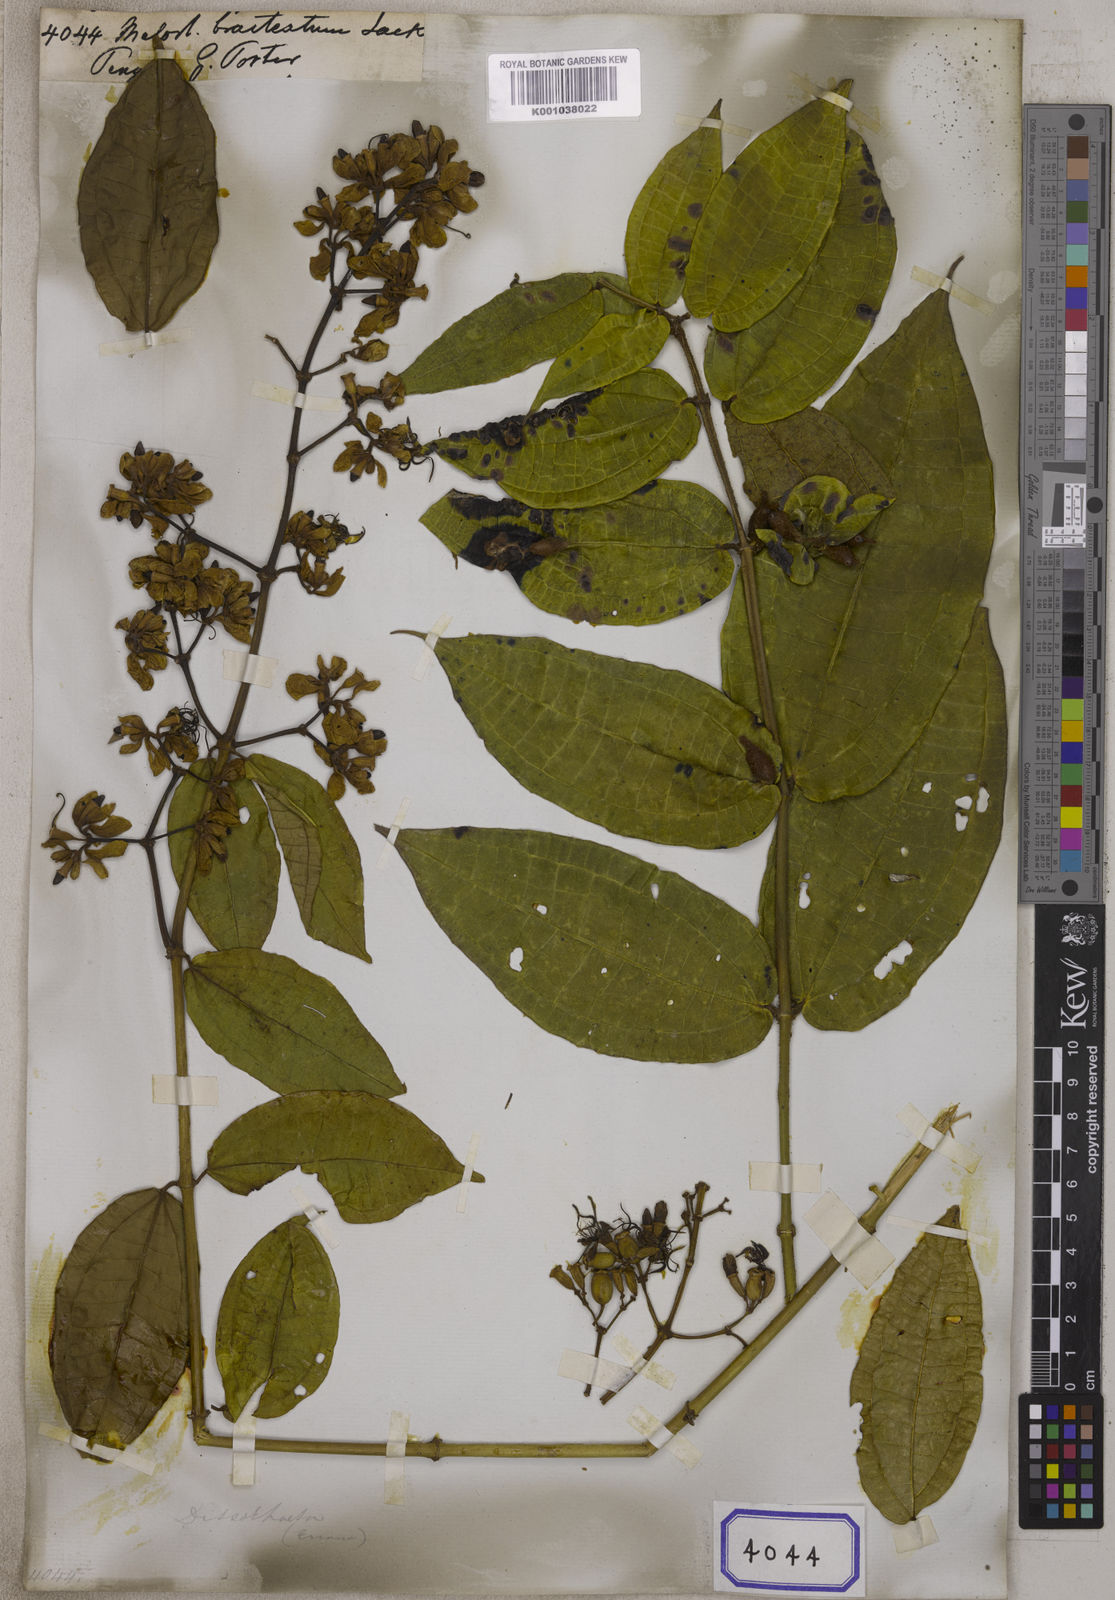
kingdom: Plantae
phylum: Tracheophyta
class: Magnoliopsida
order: Myrtales
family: Melastomataceae
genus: Dissochaeta
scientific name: Dissochaeta bracteata
